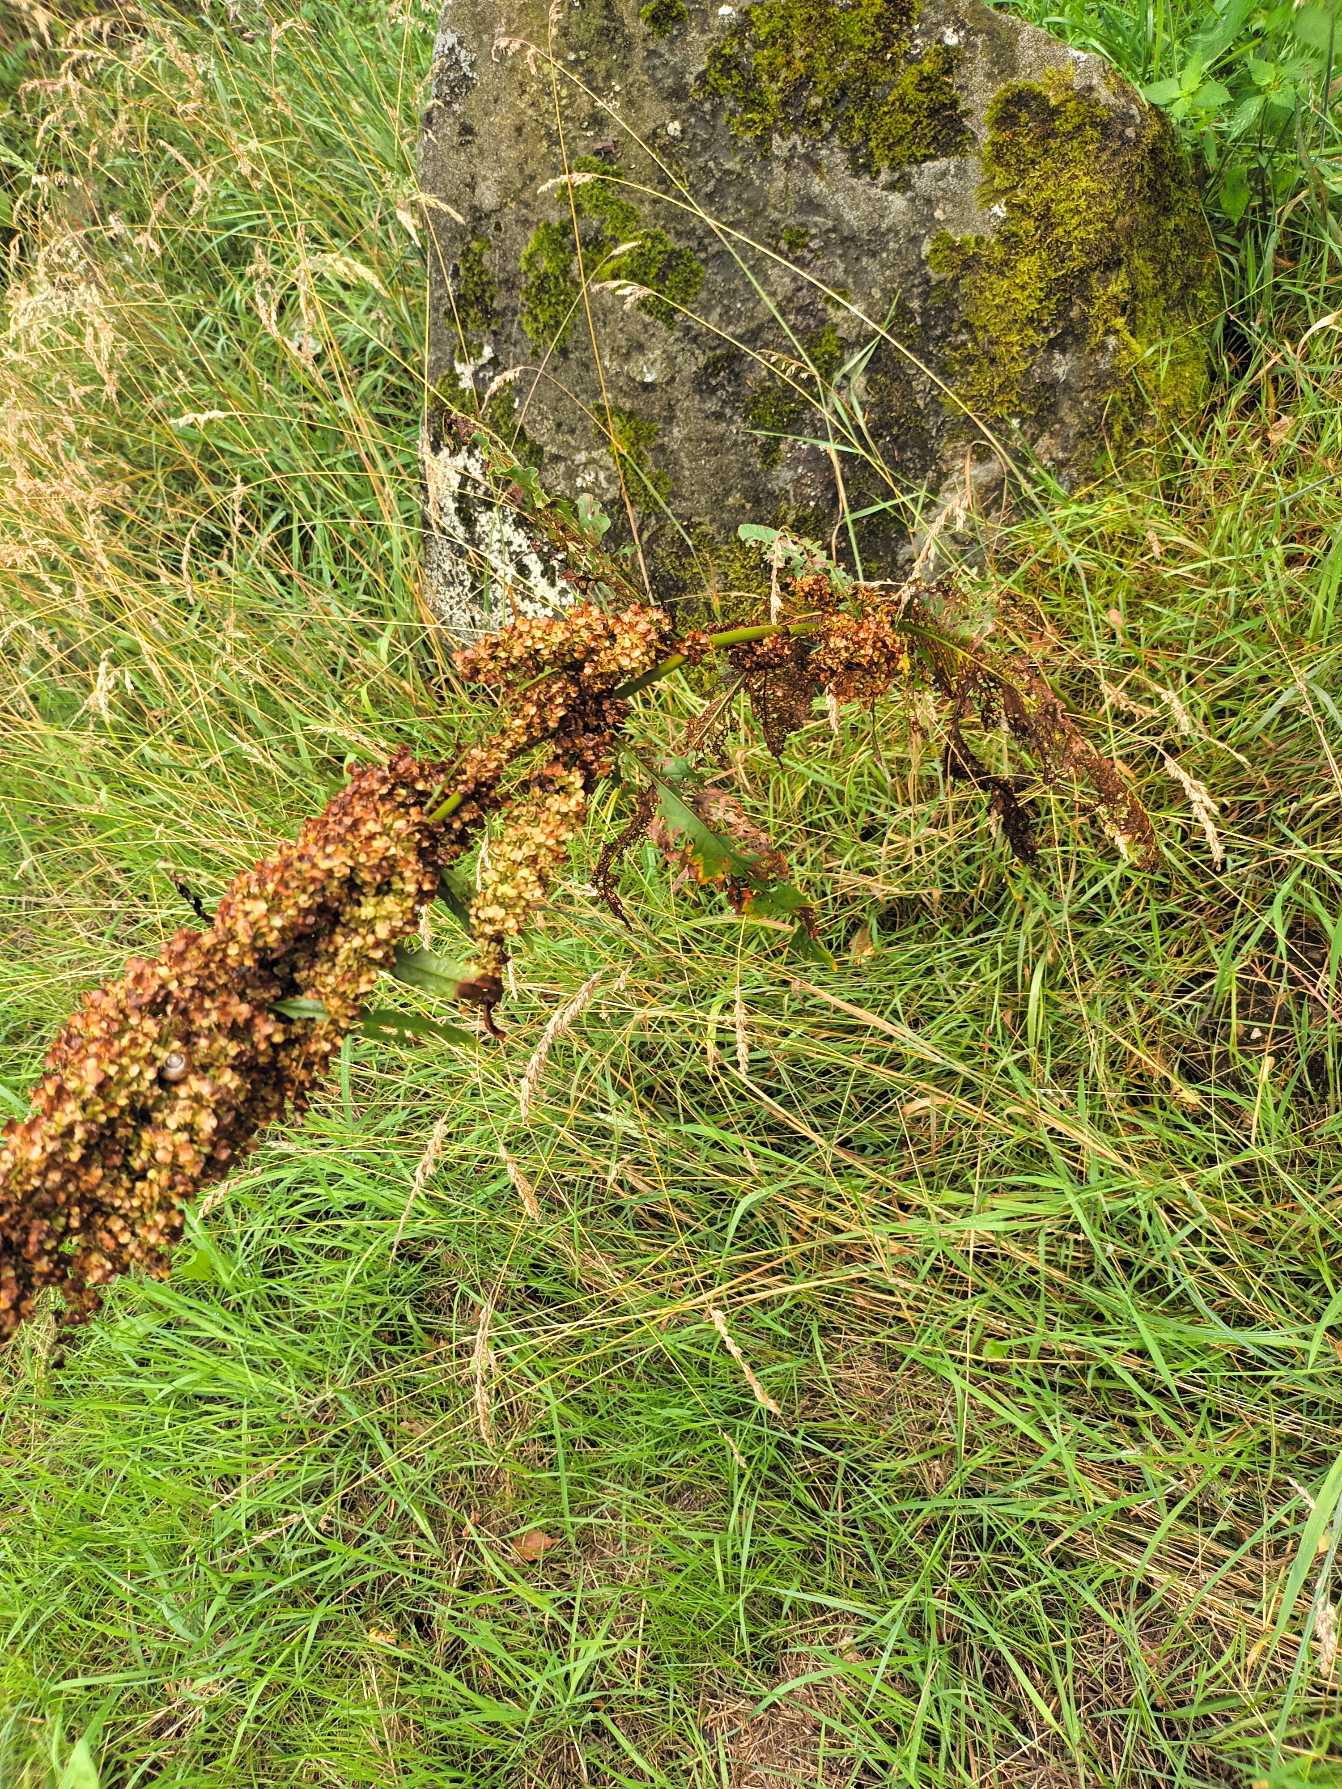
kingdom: Plantae
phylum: Tracheophyta
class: Magnoliopsida
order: Caryophyllales
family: Polygonaceae
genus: Rumex
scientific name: Rumex longifolius
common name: By-skræppe
